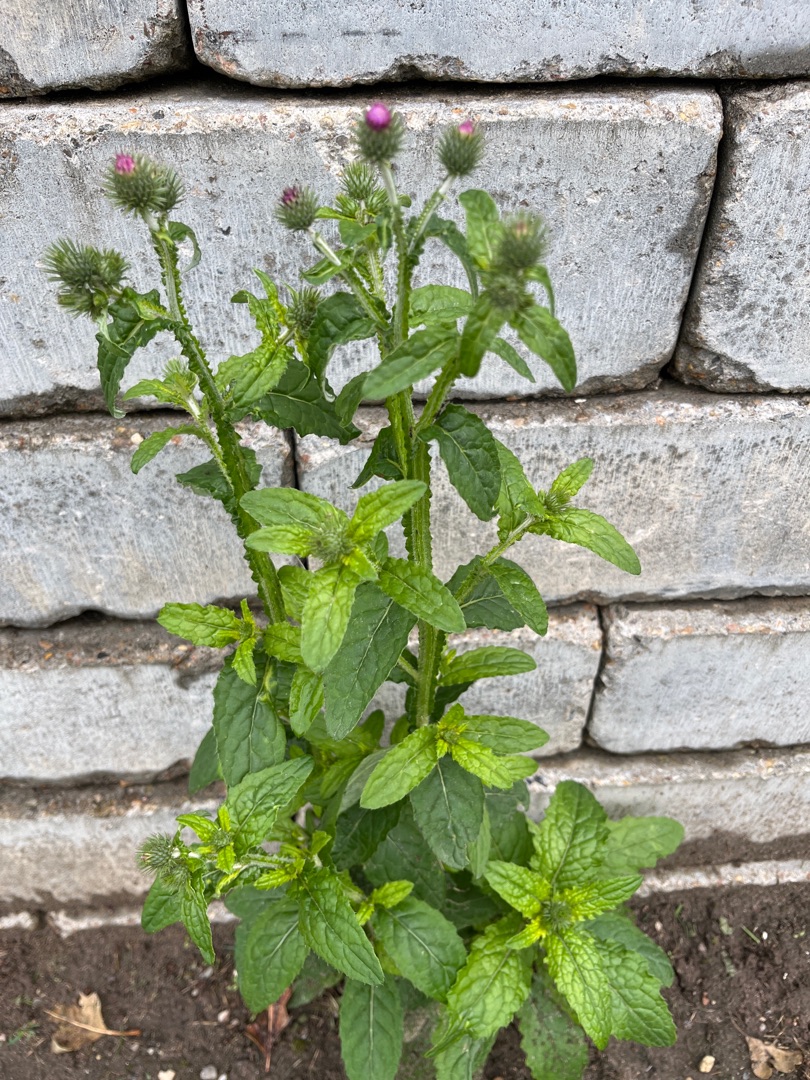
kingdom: Plantae
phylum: Tracheophyta
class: Magnoliopsida
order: Asterales
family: Asteraceae
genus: Carduus
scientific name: Carduus crispus
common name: Kruset tidsel
